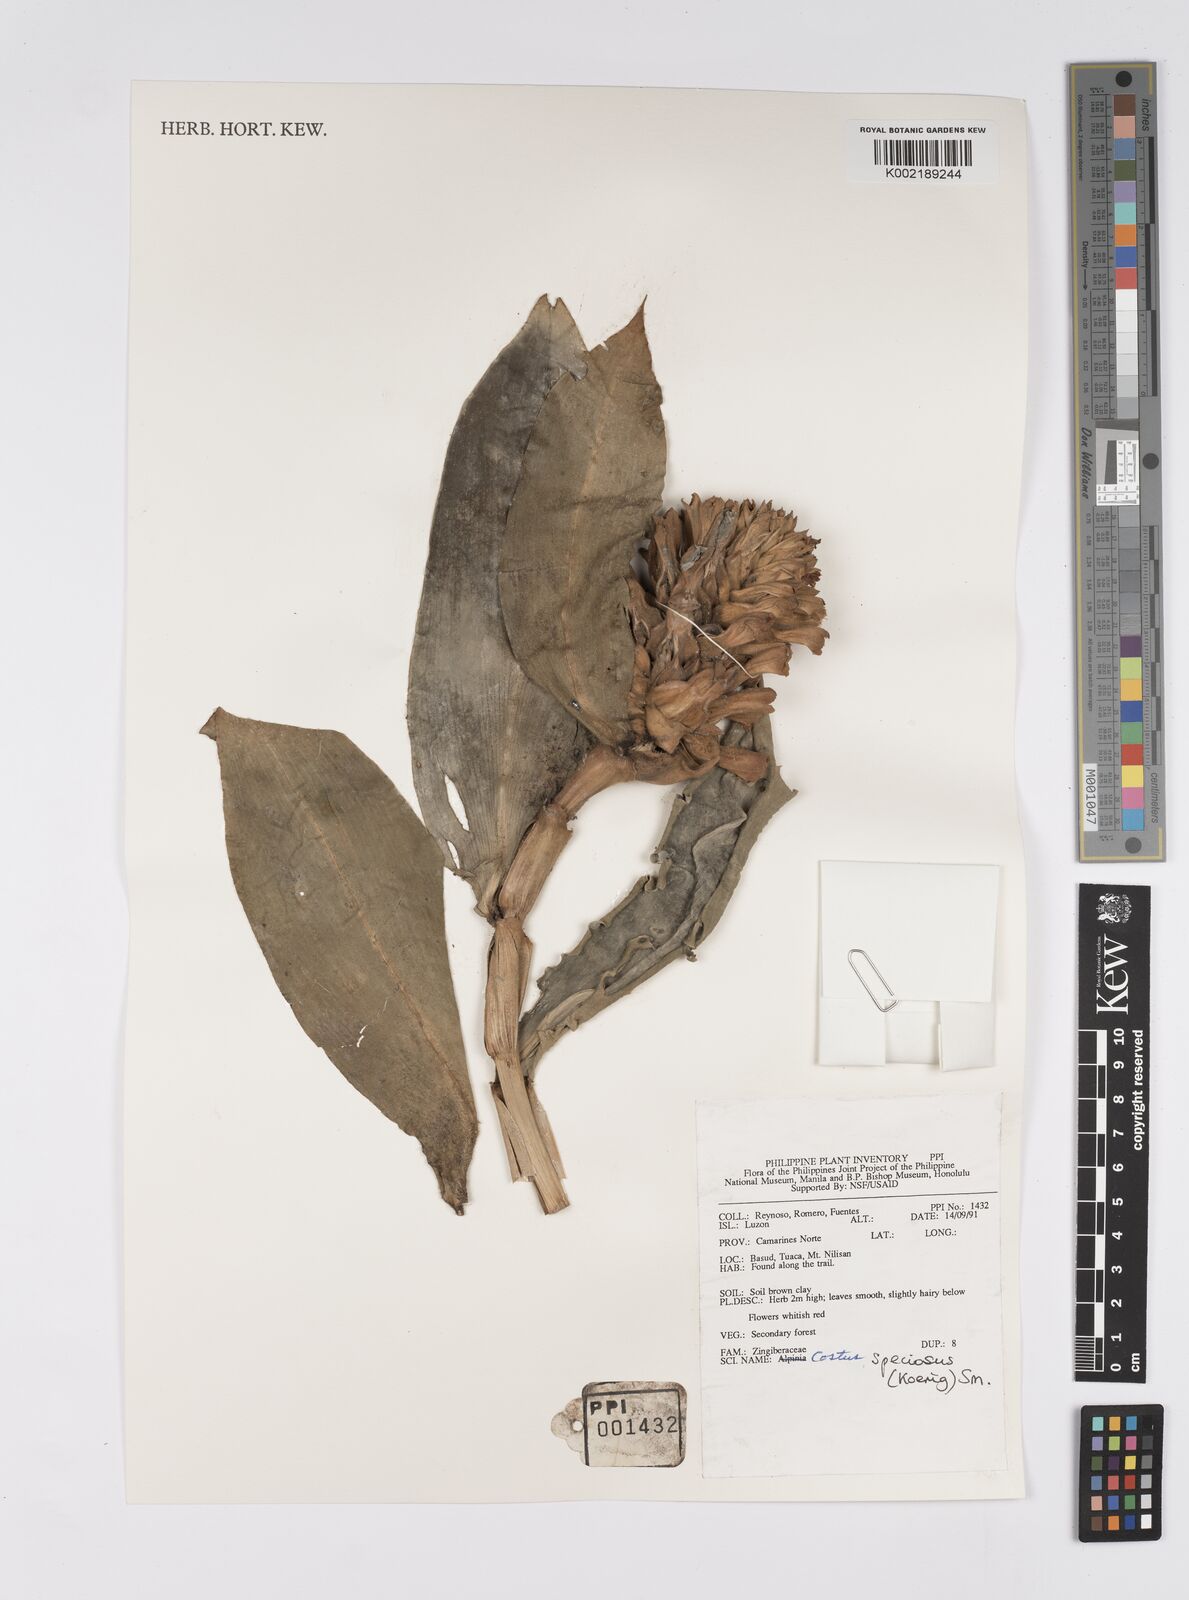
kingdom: Plantae
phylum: Tracheophyta
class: Liliopsida
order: Zingiberales
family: Costaceae
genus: Hellenia
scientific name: Hellenia speciosa
